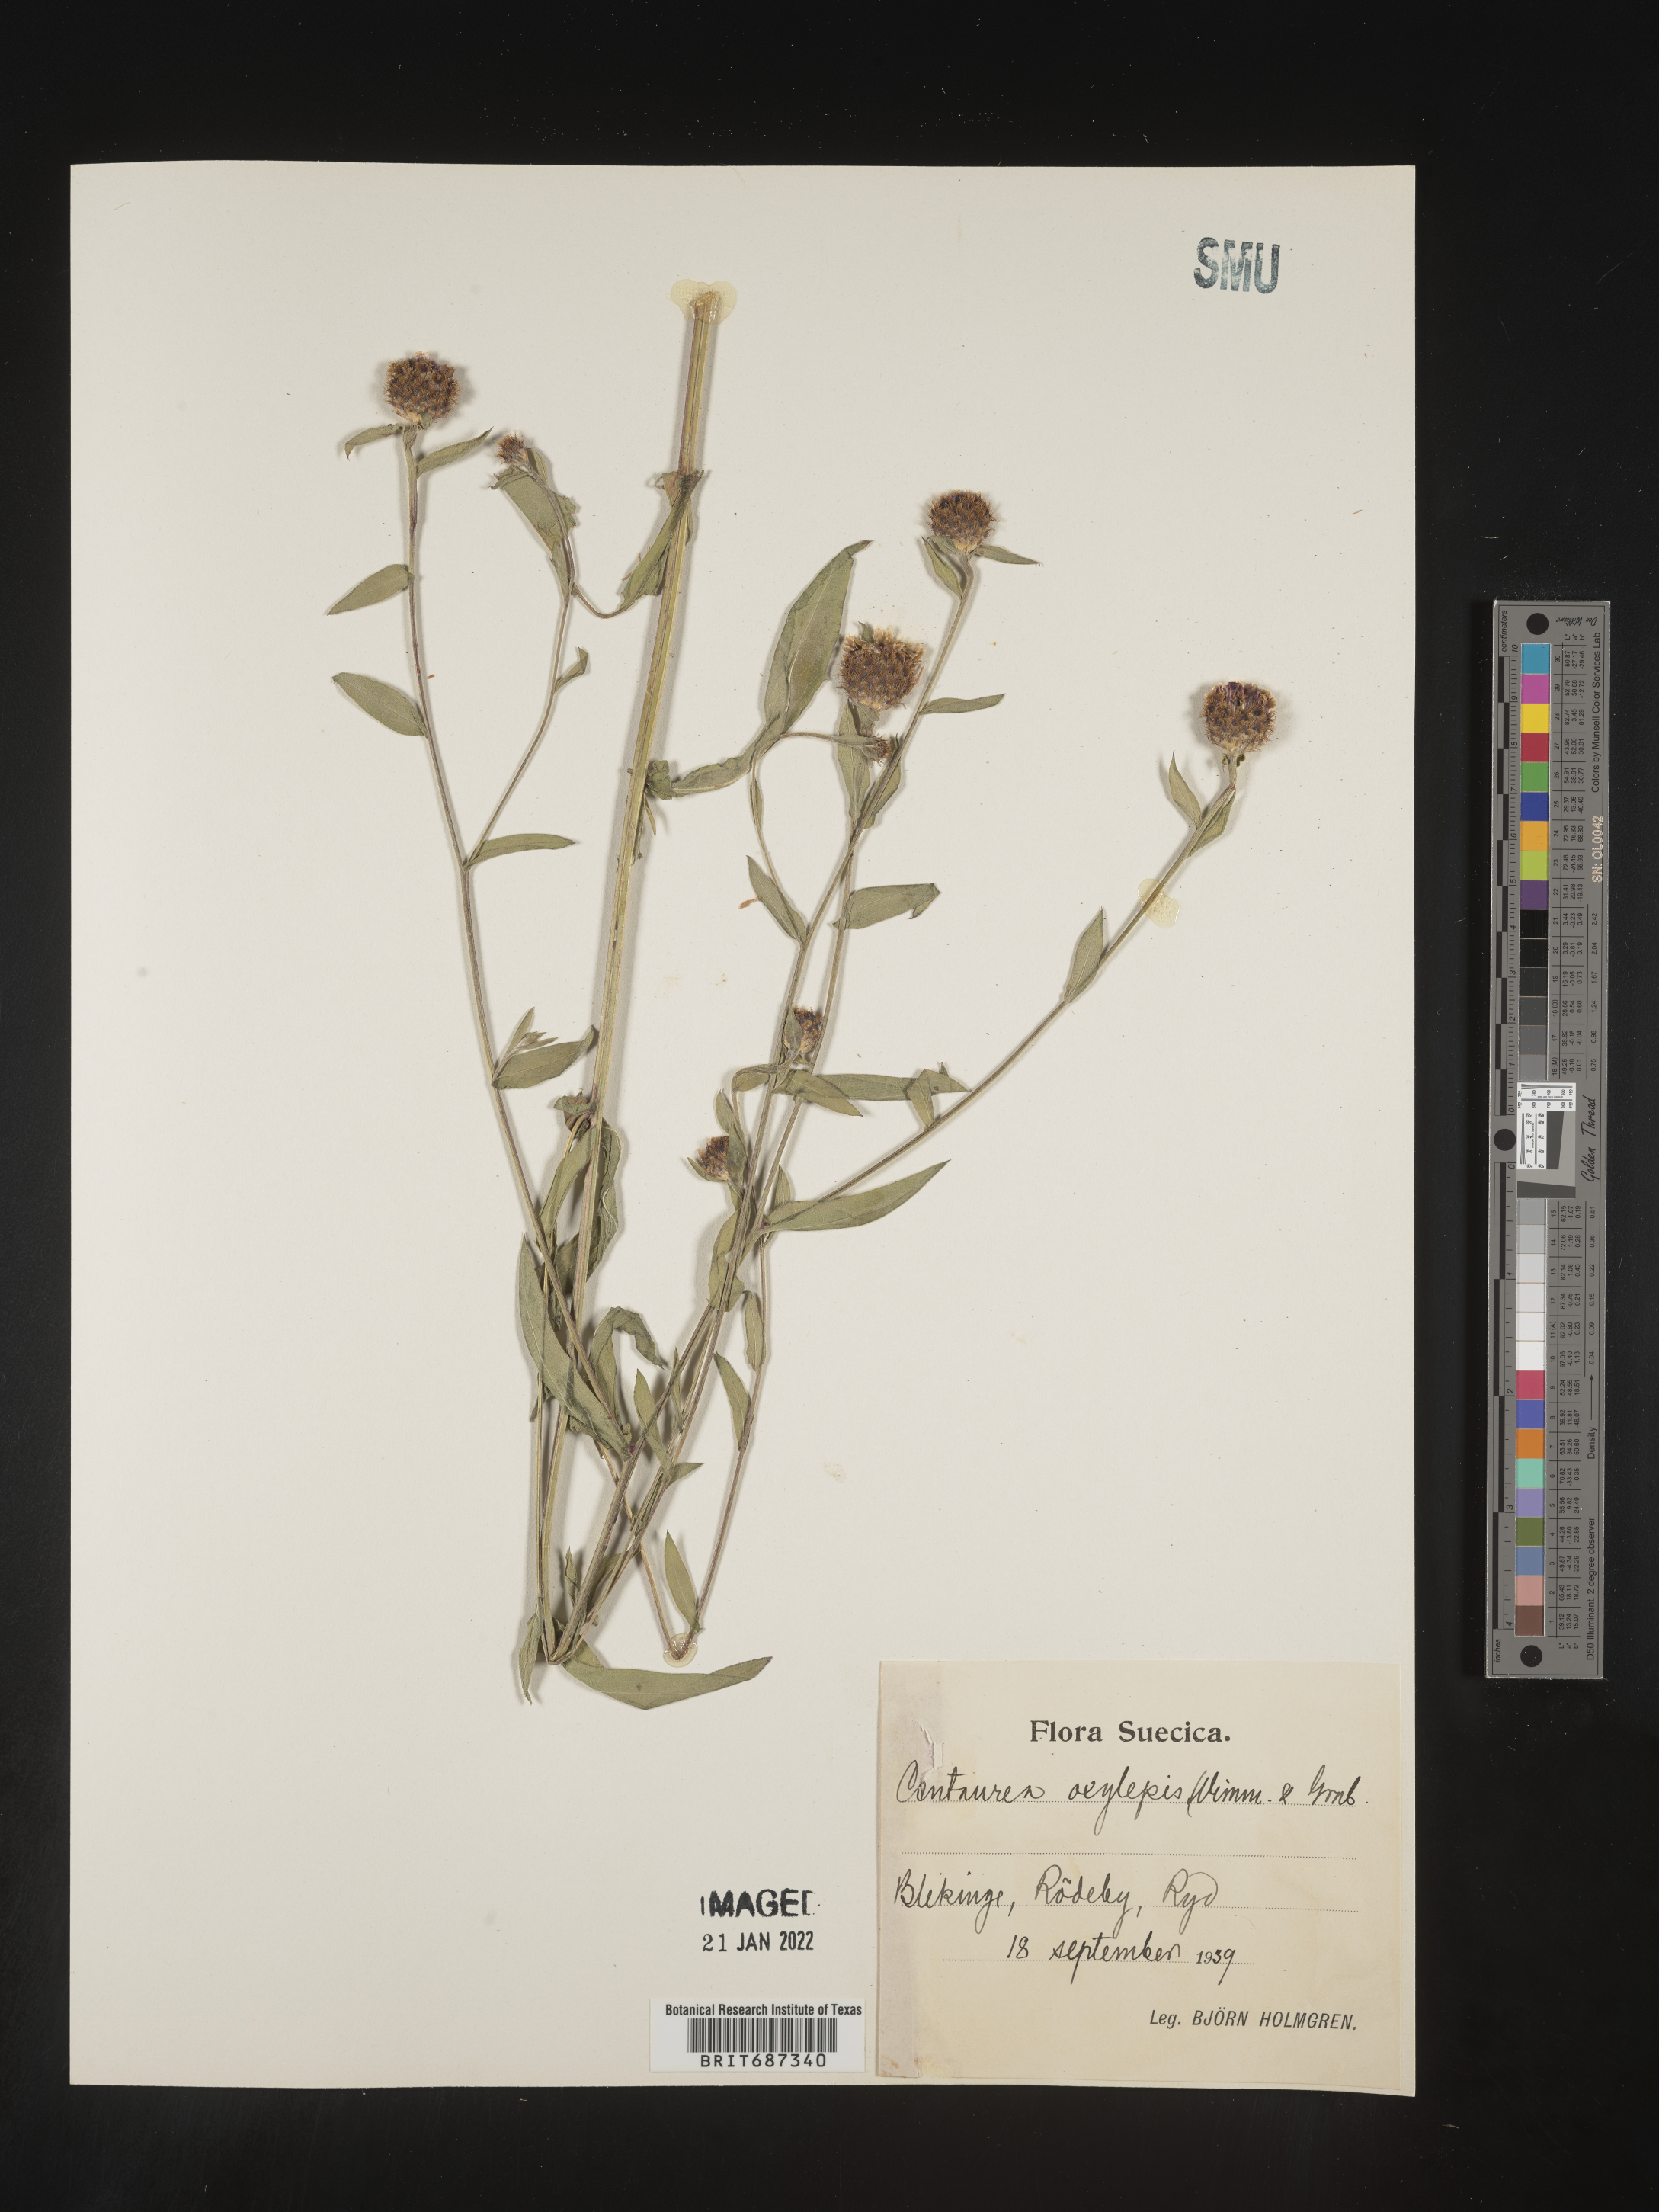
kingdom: Plantae
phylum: Tracheophyta
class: Magnoliopsida
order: Asterales
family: Asteraceae
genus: Centaurea
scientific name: Centaurea
